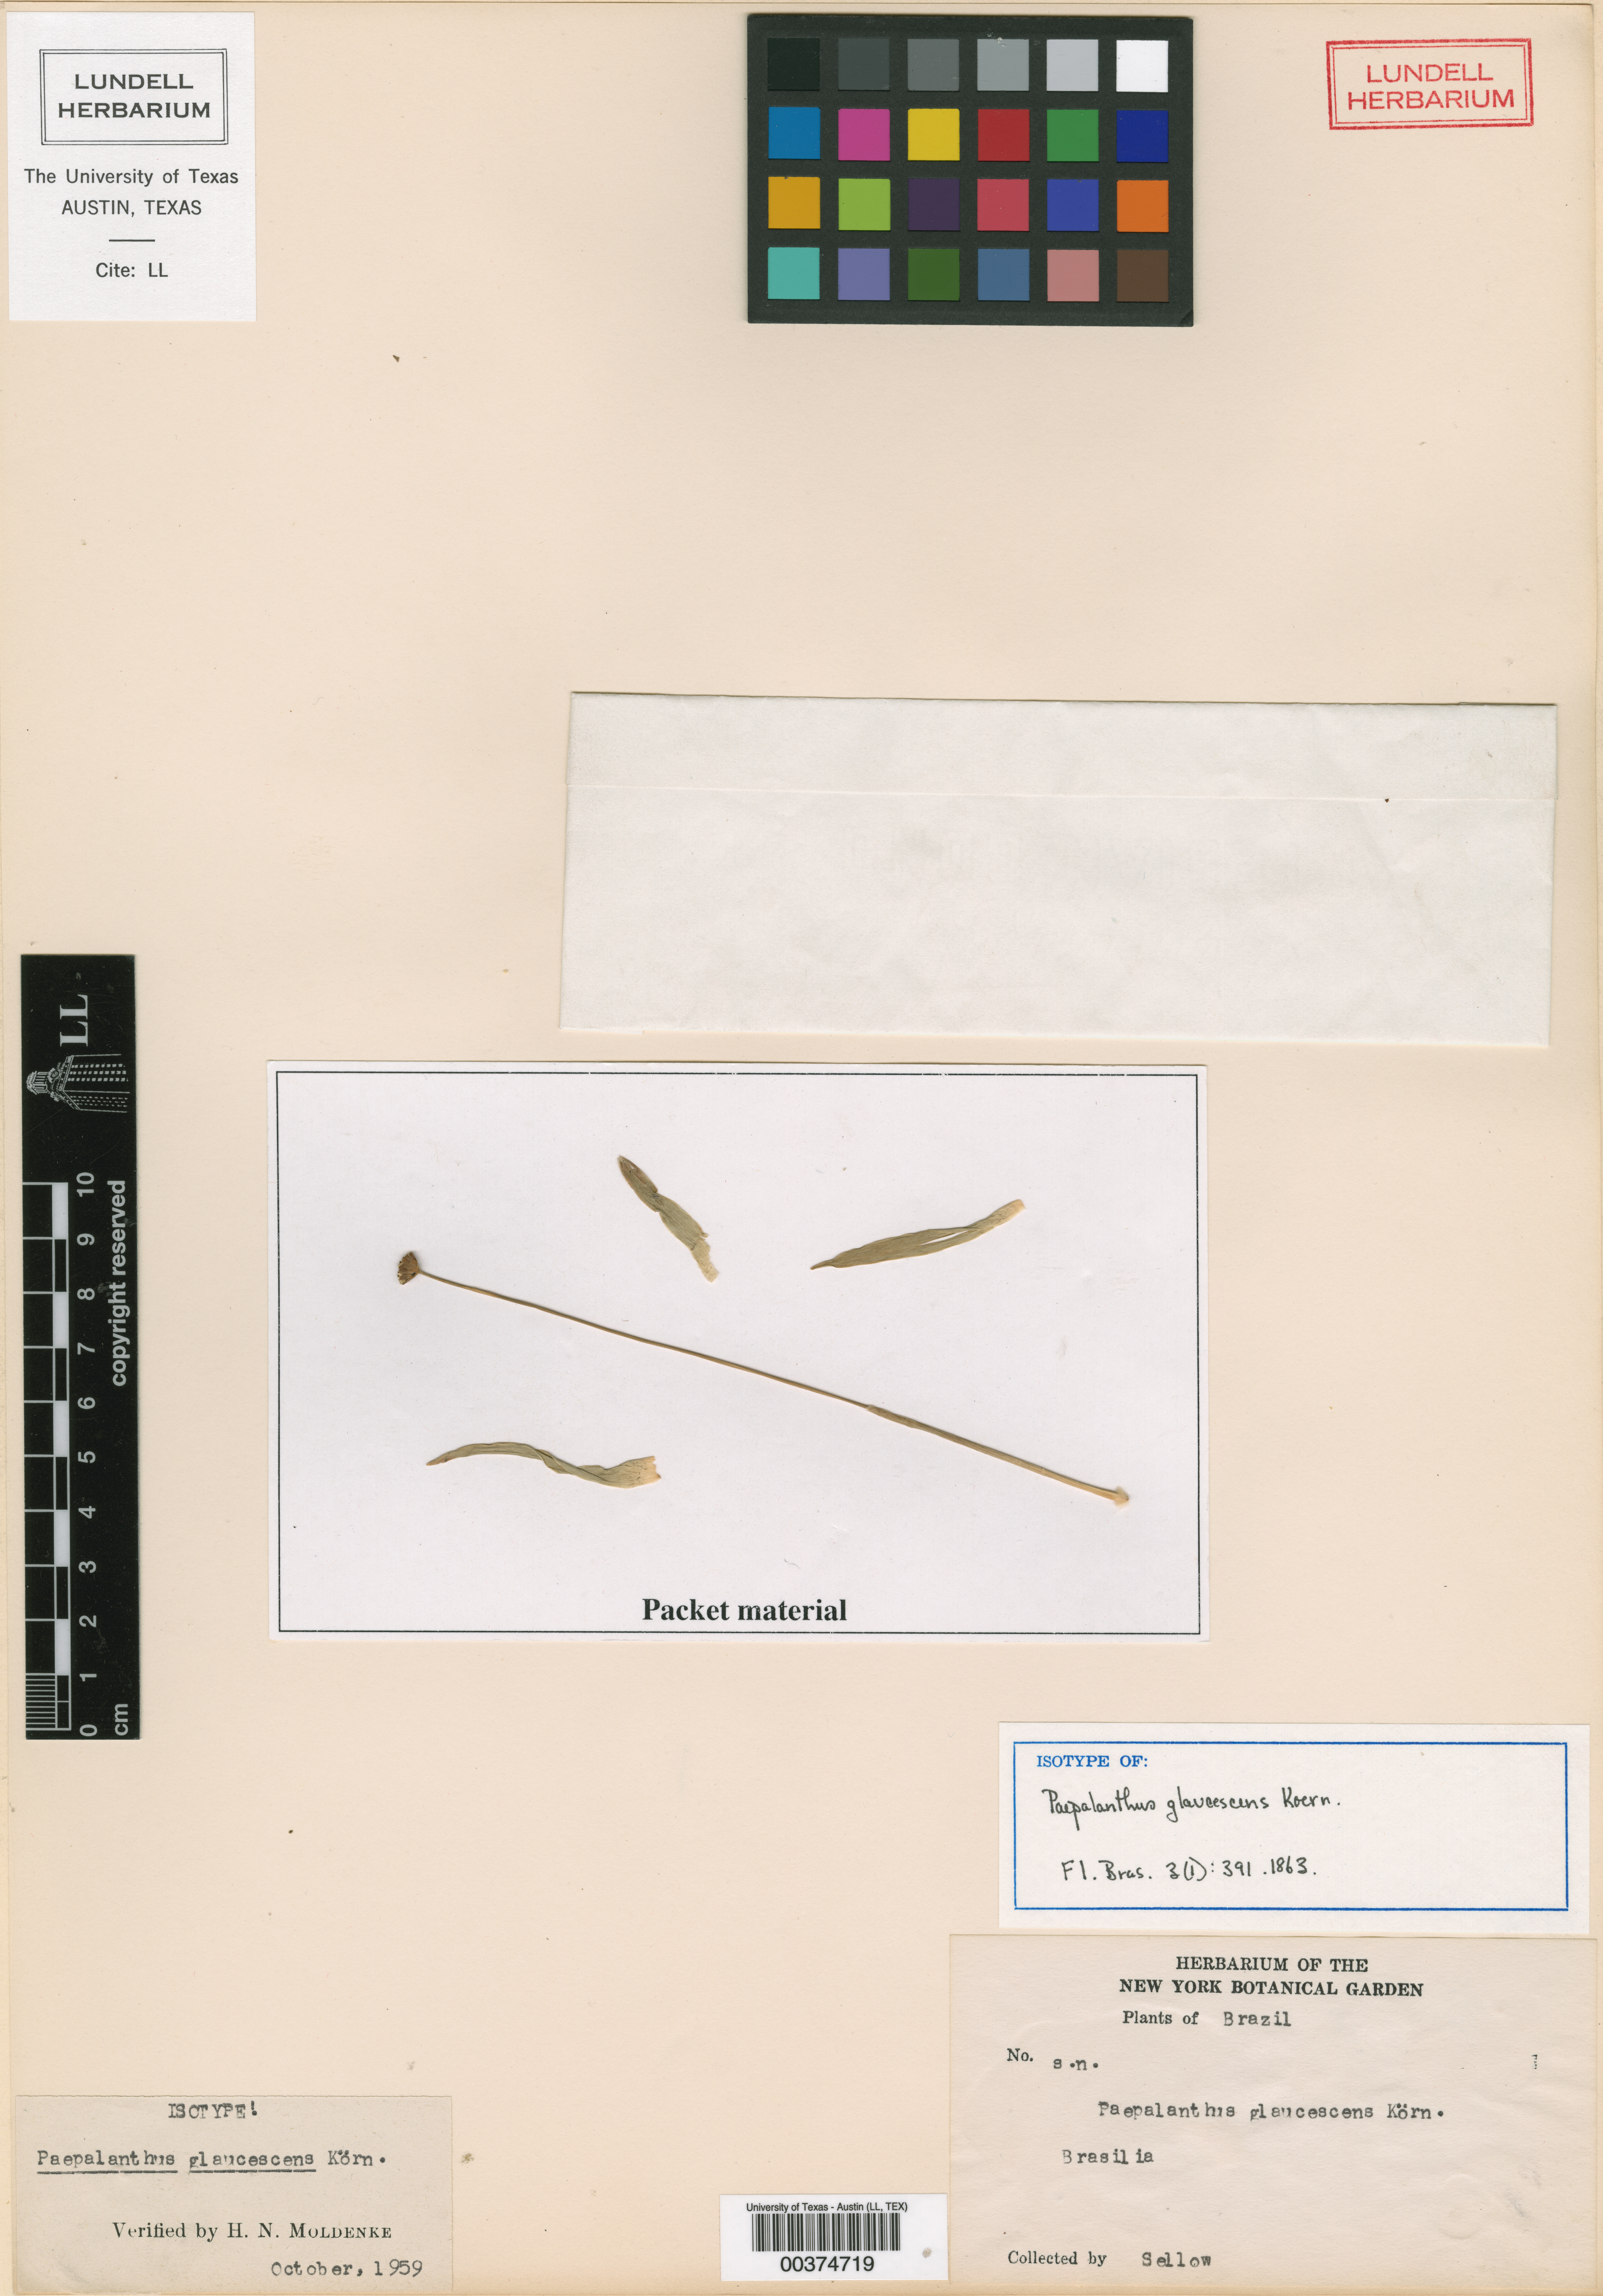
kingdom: Plantae
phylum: Tracheophyta
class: Liliopsida
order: Poales
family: Eriocaulaceae
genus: Paepalanthus
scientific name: Paepalanthus glaucescens
